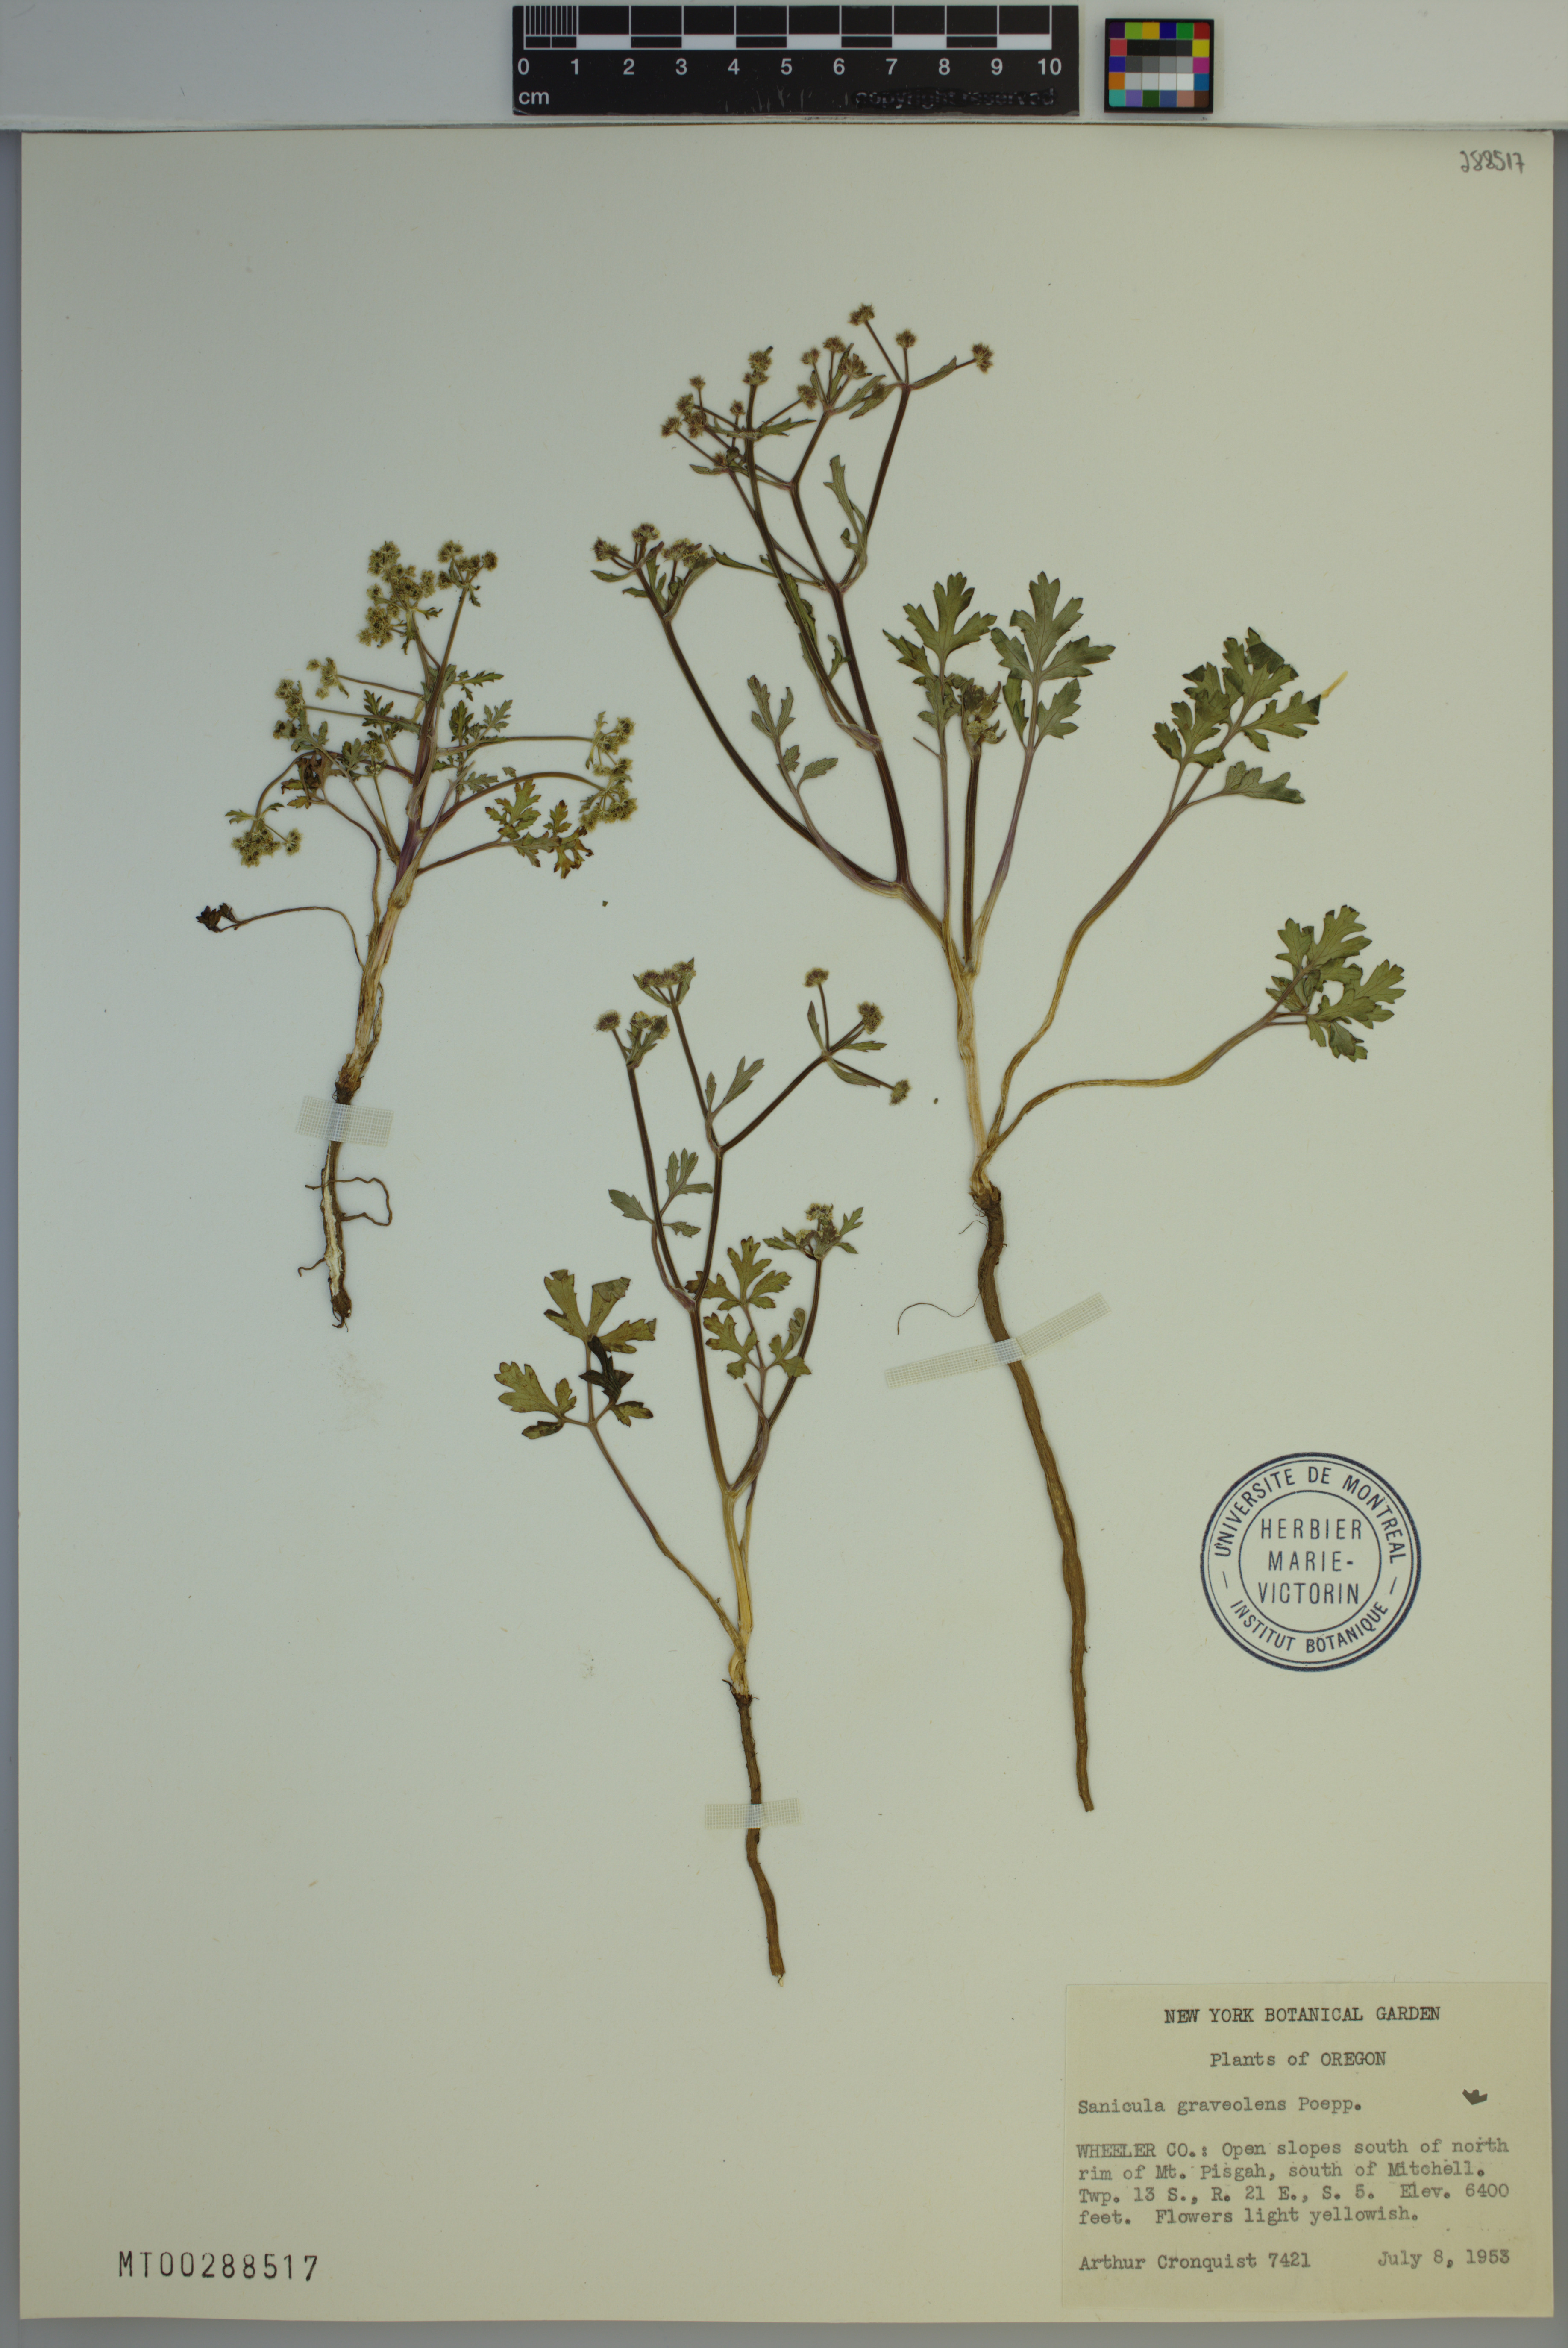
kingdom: Plantae
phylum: Tracheophyta
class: Magnoliopsida
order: Apiales
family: Apiaceae
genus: Sanicula
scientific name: Sanicula graveolens
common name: Sierra sanicle
